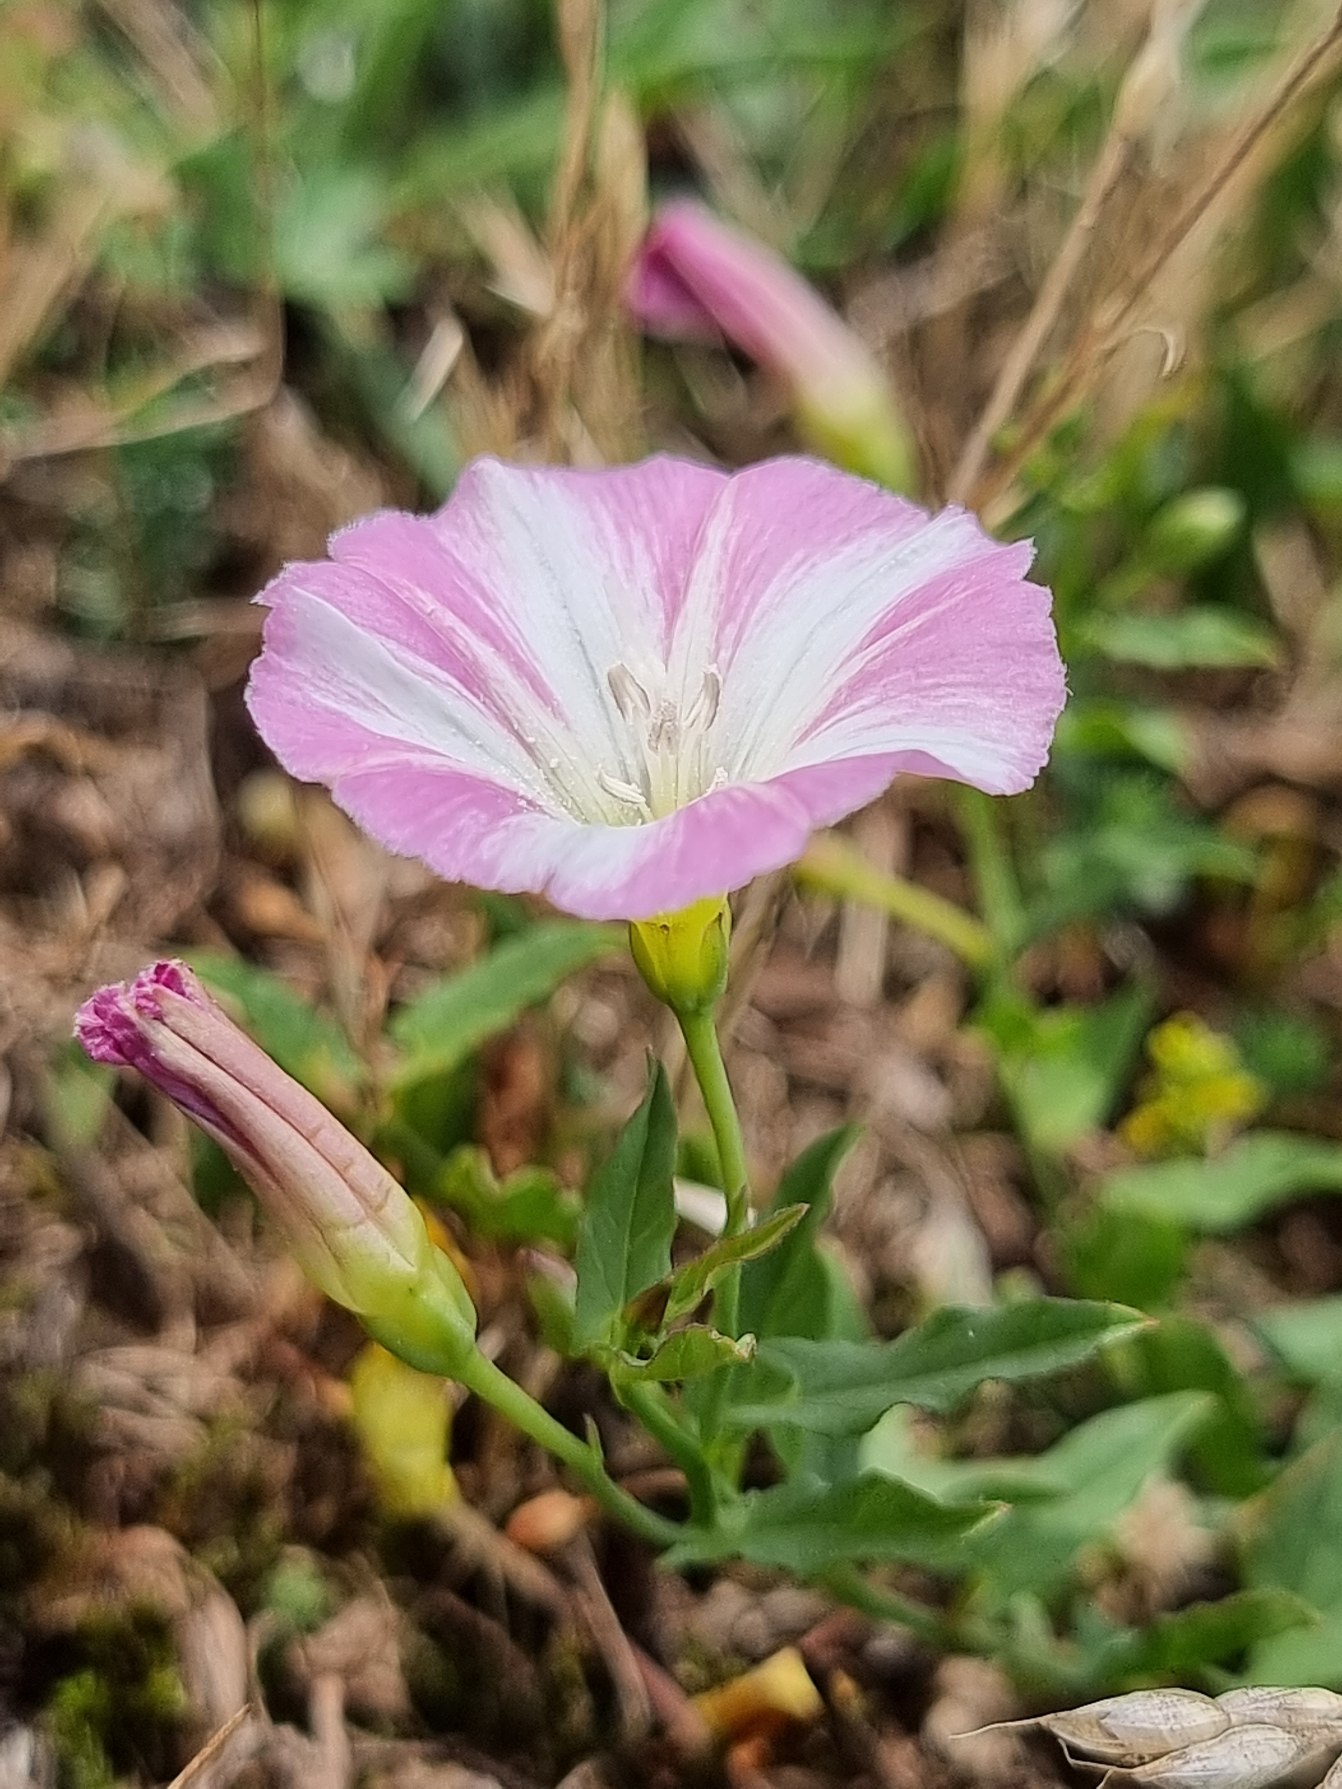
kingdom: Plantae
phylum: Tracheophyta
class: Magnoliopsida
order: Solanales
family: Convolvulaceae
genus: Convolvulus
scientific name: Convolvulus arvensis
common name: Ager-snerle
